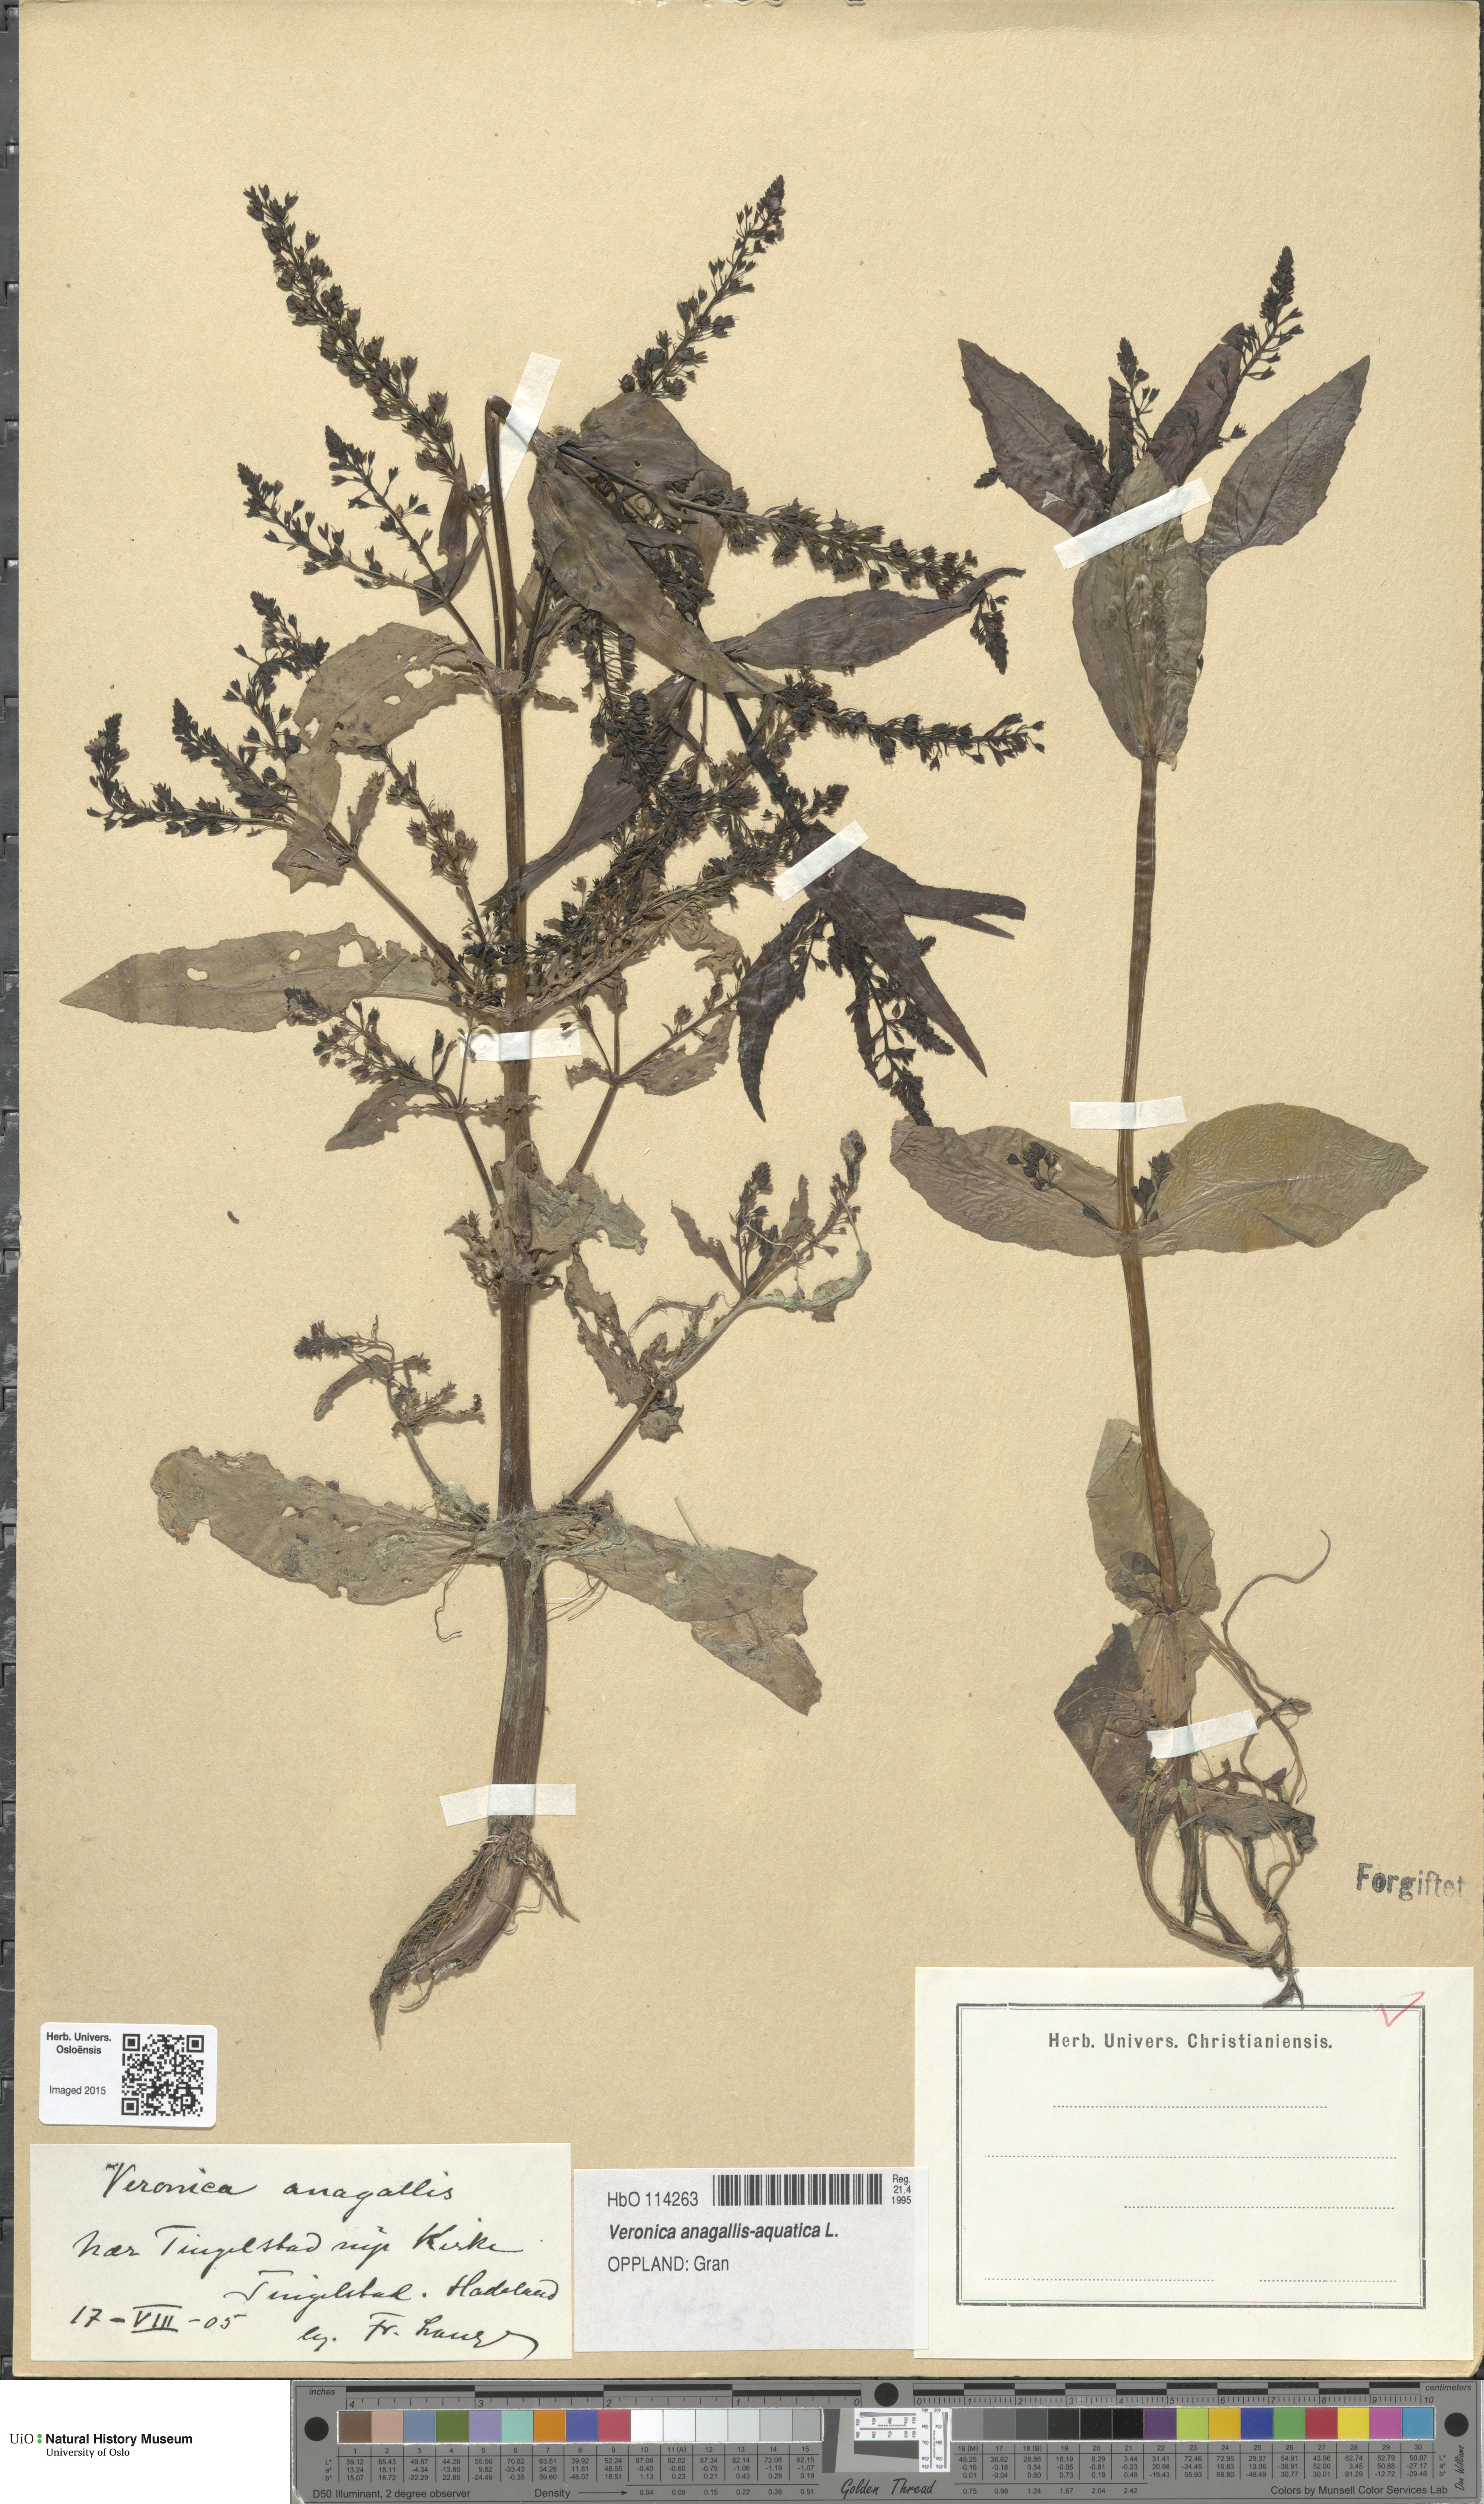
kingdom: Plantae
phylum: Tracheophyta
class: Magnoliopsida
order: Lamiales
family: Plantaginaceae
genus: Veronica
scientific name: Veronica anagallis-aquatica
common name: Water speedwell
